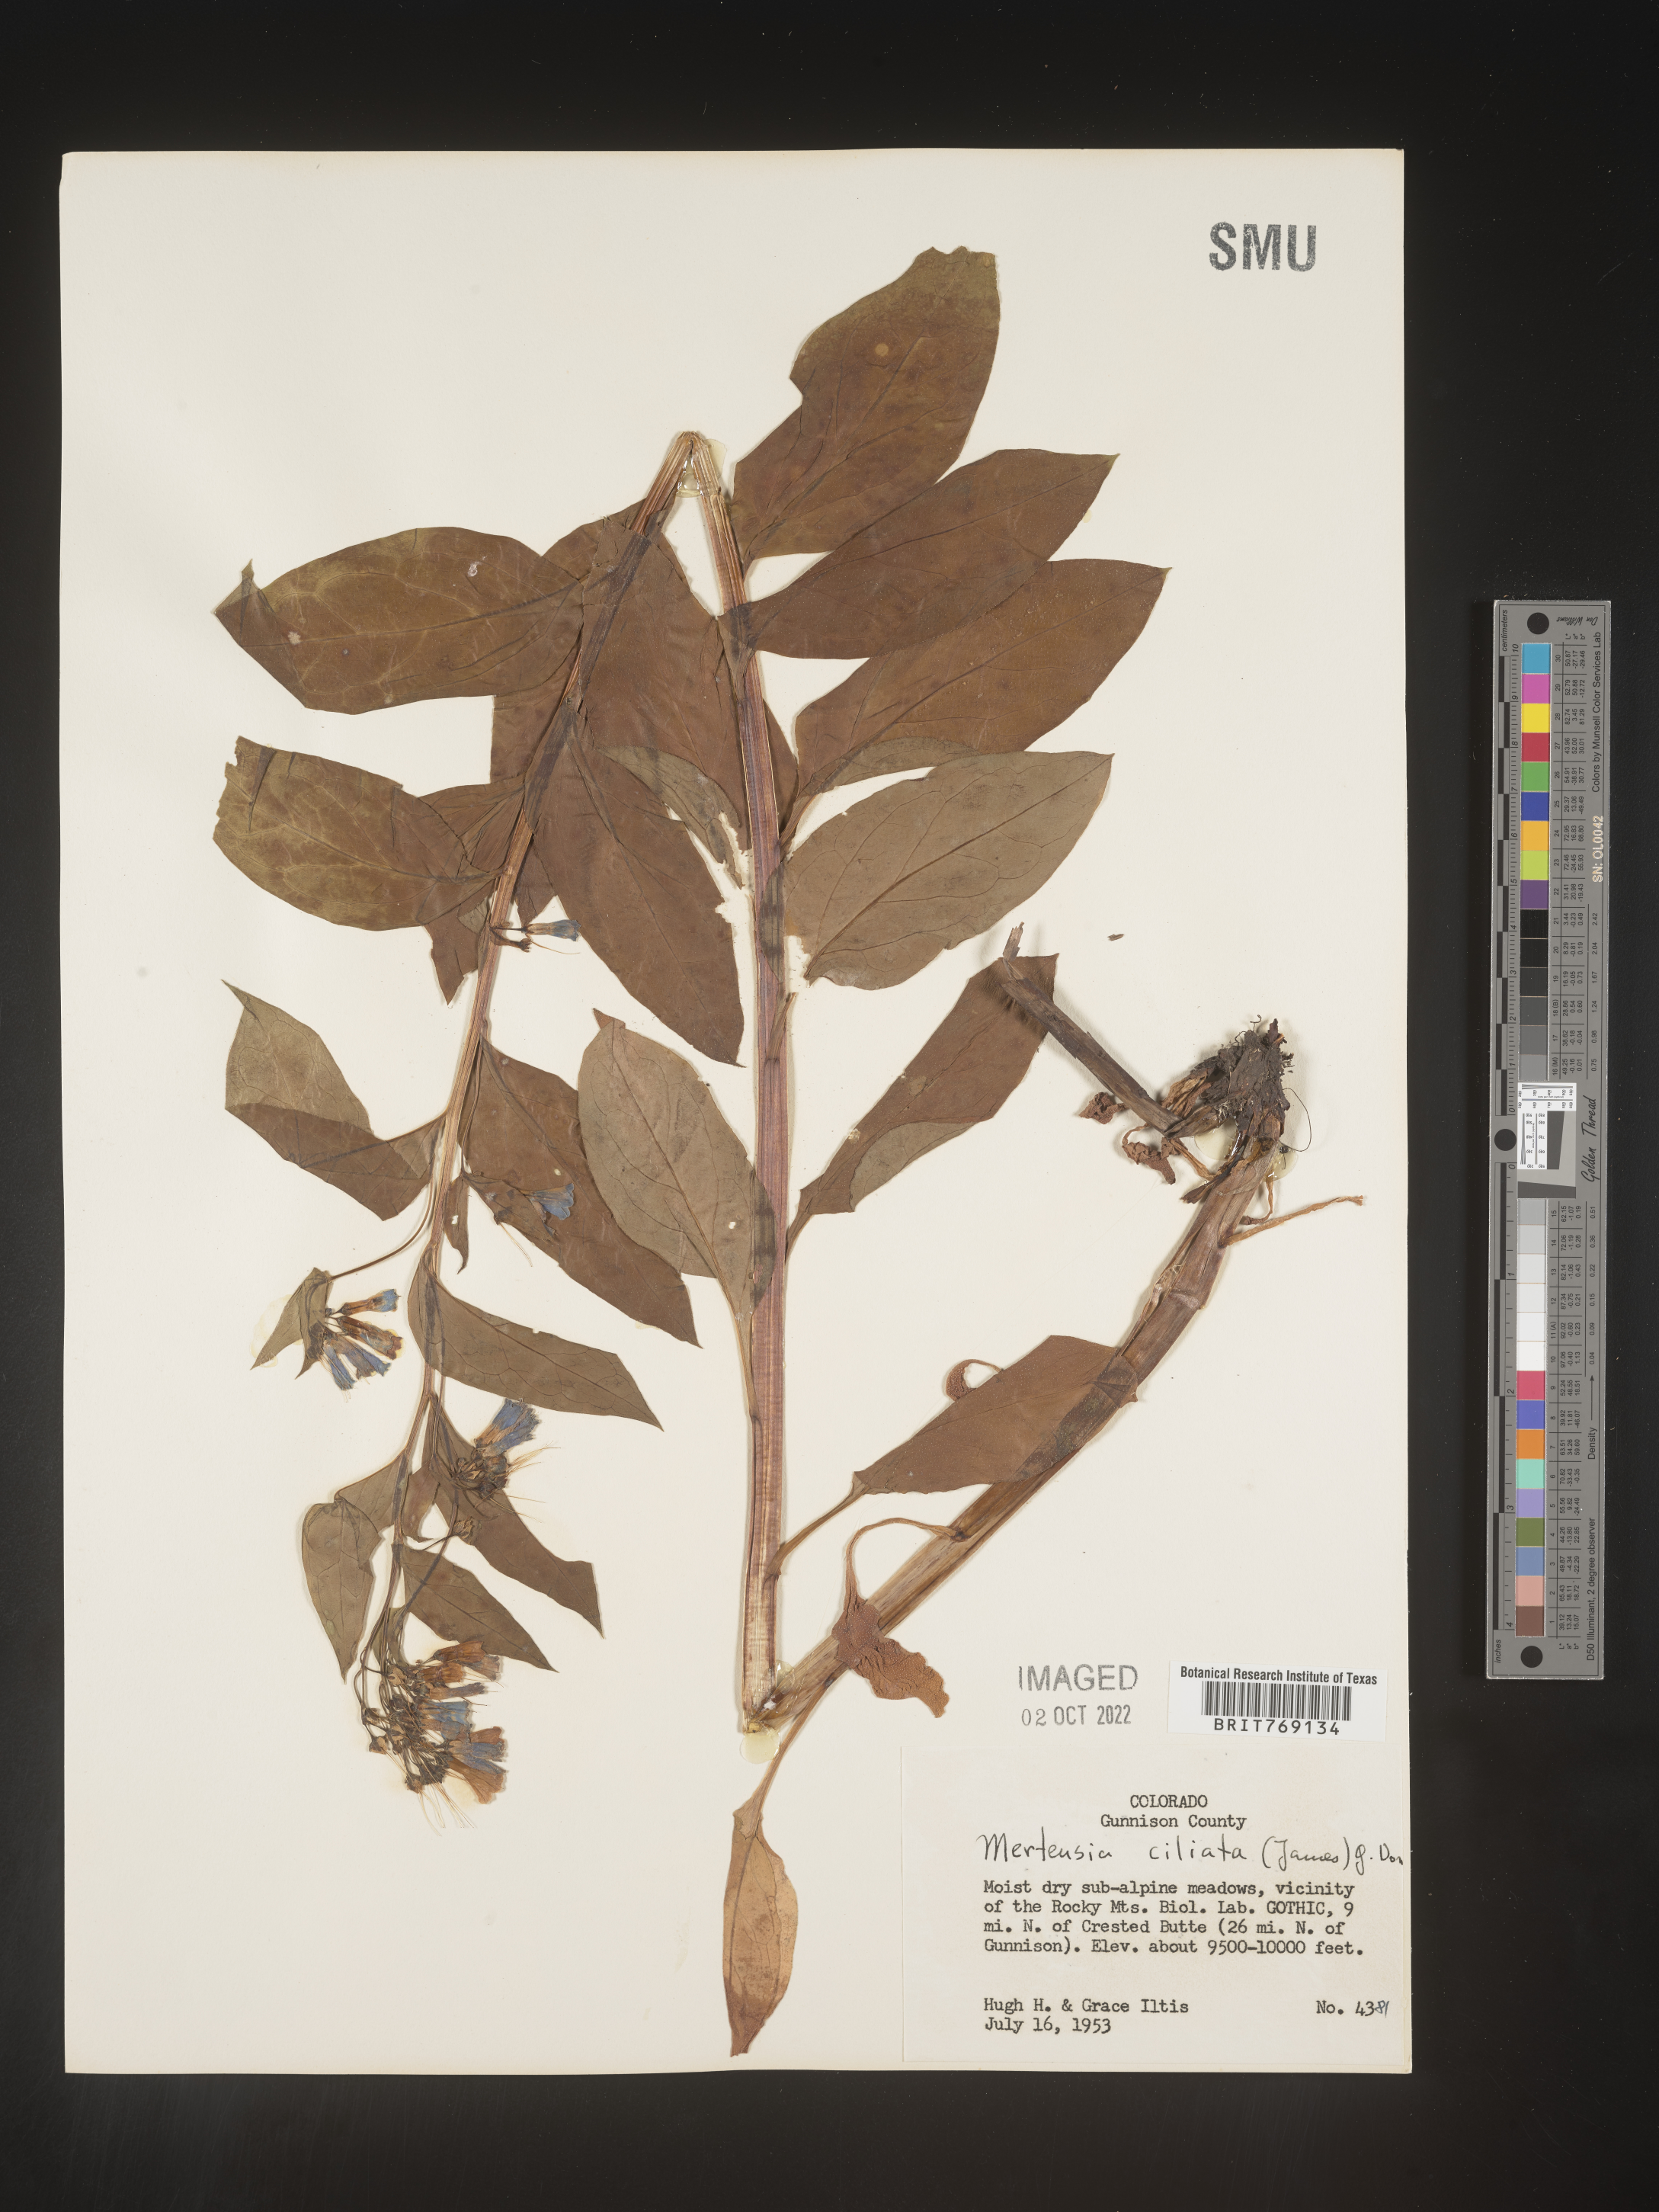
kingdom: Plantae
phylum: Tracheophyta
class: Magnoliopsida
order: Boraginales
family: Boraginaceae
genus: Mertensia
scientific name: Mertensia
